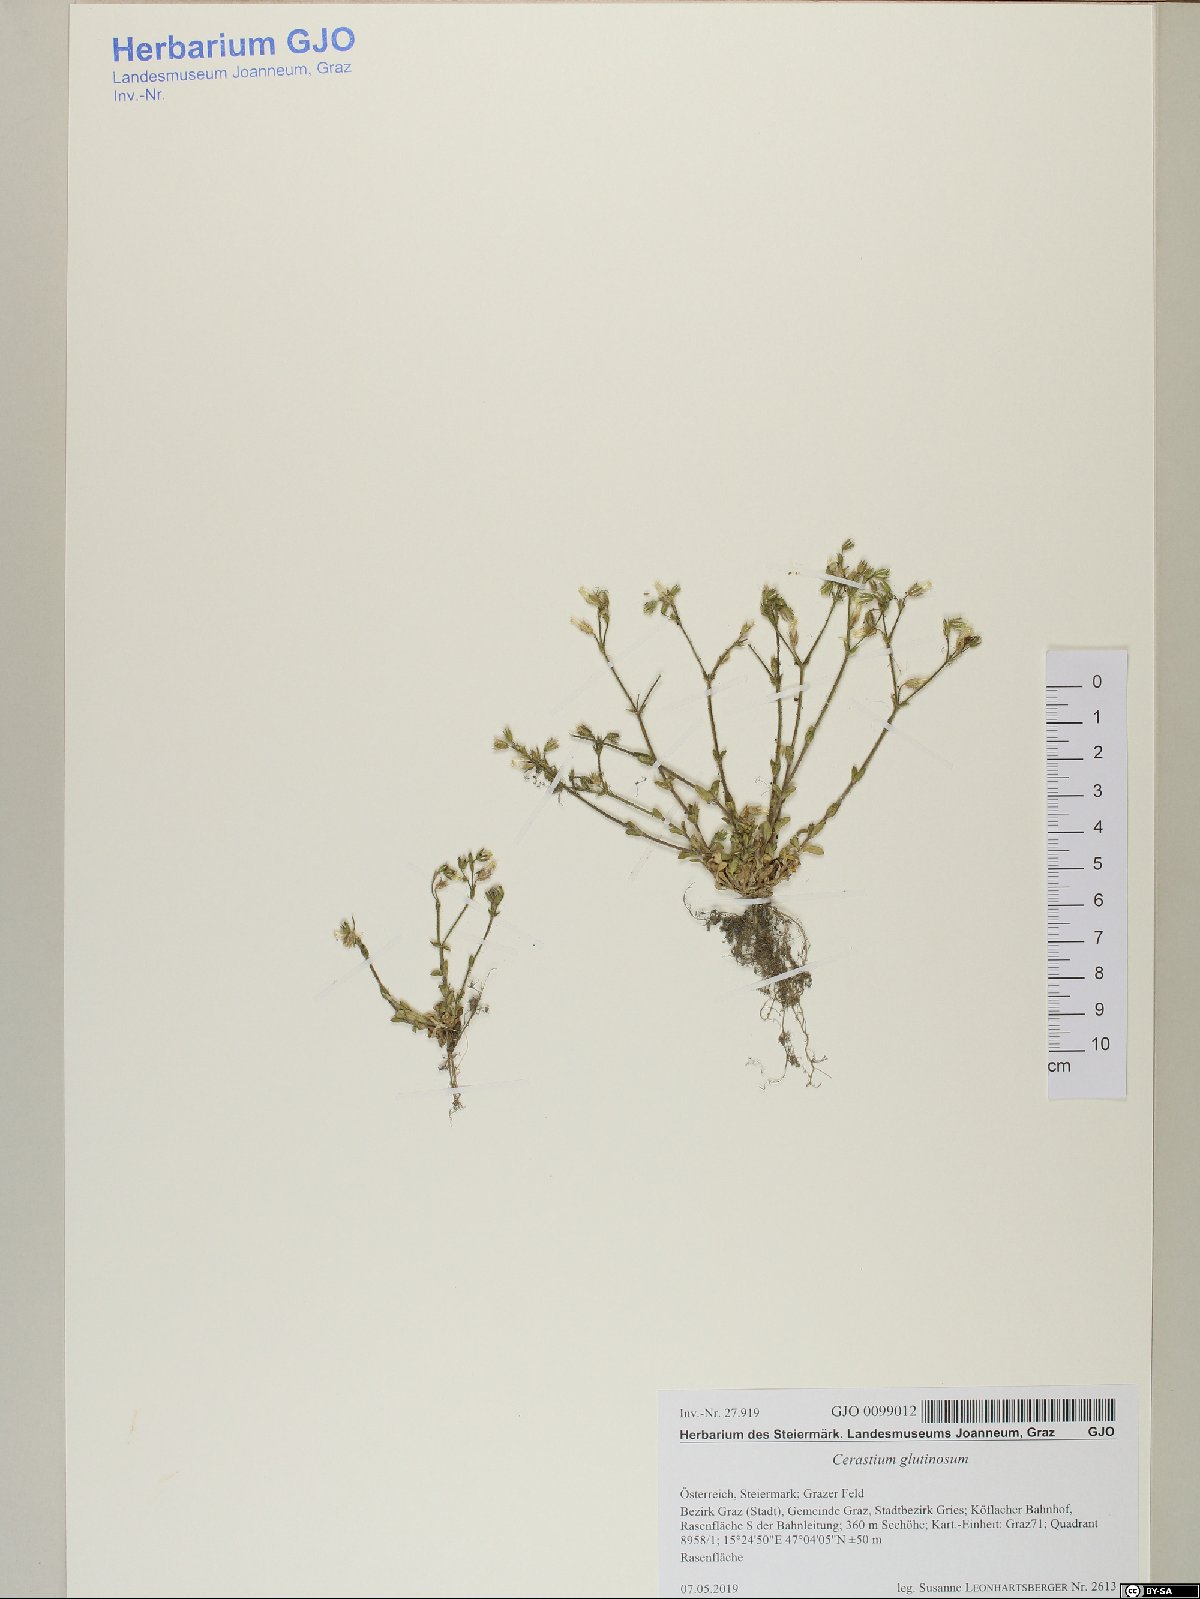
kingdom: Plantae
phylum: Tracheophyta
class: Magnoliopsida
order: Caryophyllales
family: Caryophyllaceae
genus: Cerastium
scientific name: Cerastium glutinosum
